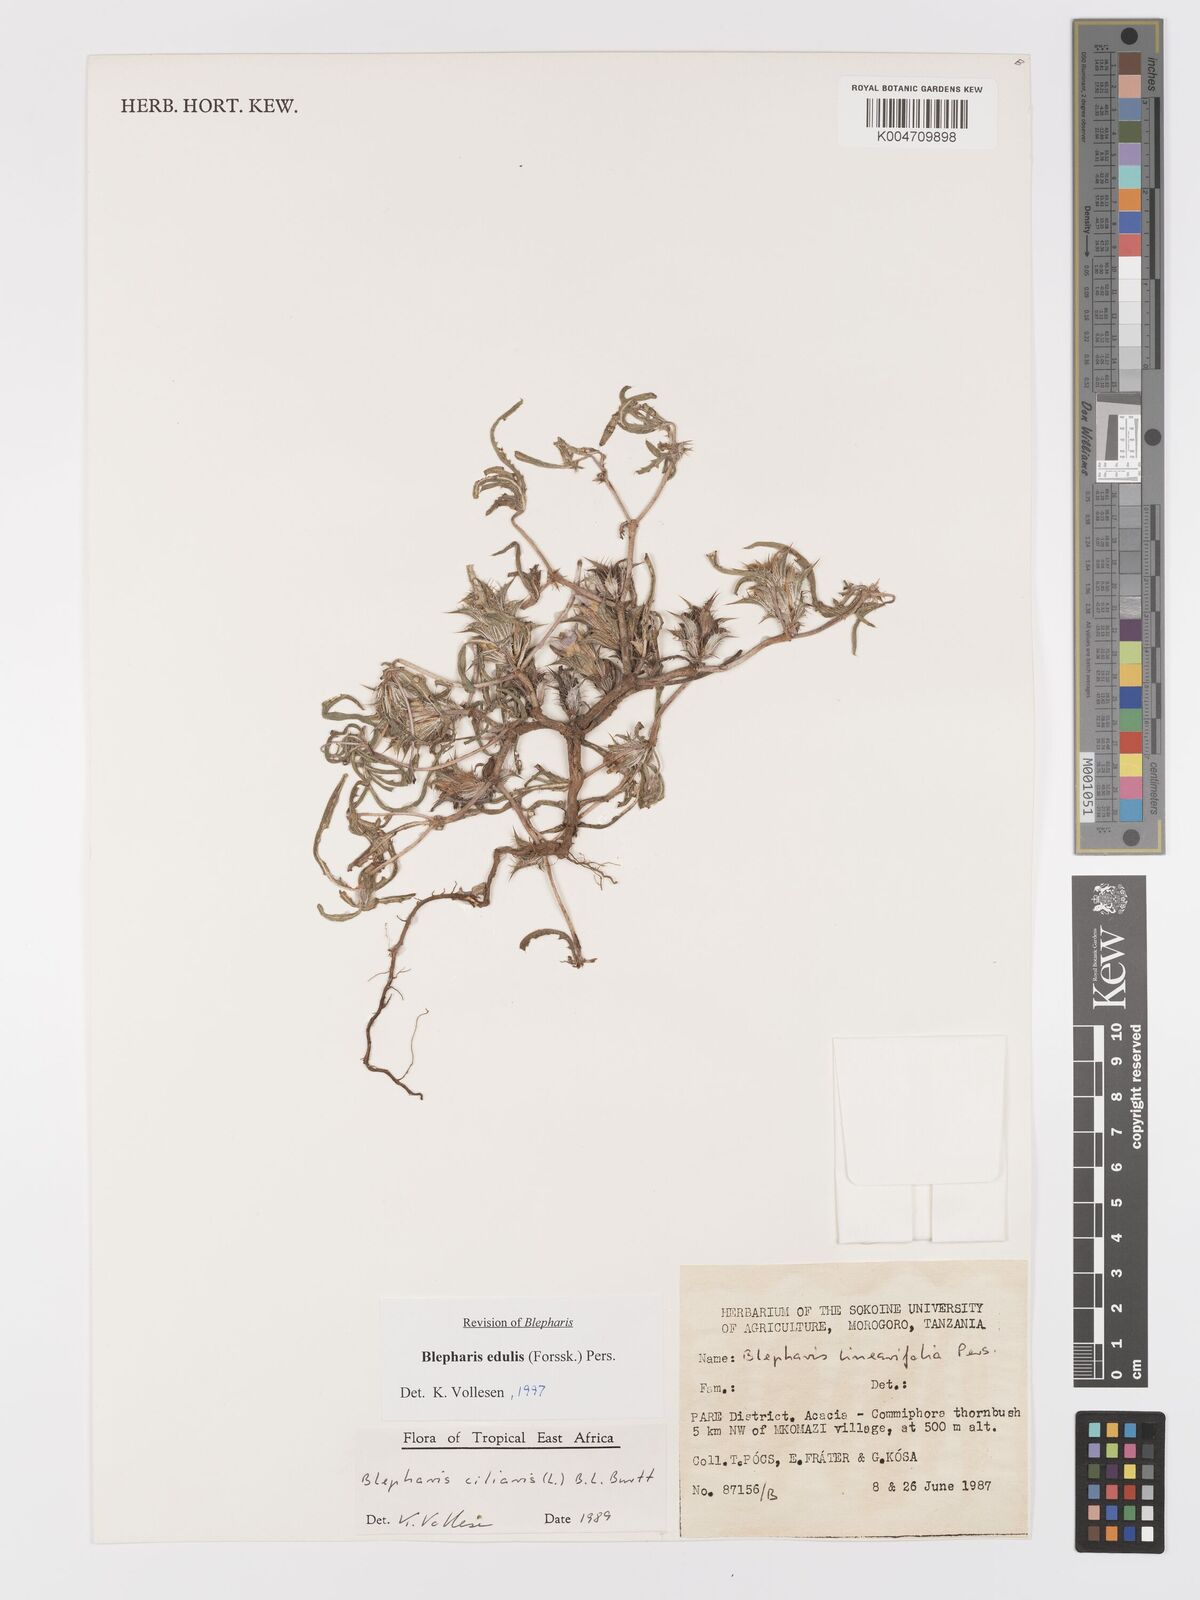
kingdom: Plantae
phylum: Tracheophyta
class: Magnoliopsida
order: Lamiales
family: Acanthaceae
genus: Blepharis
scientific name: Blepharis edulis
